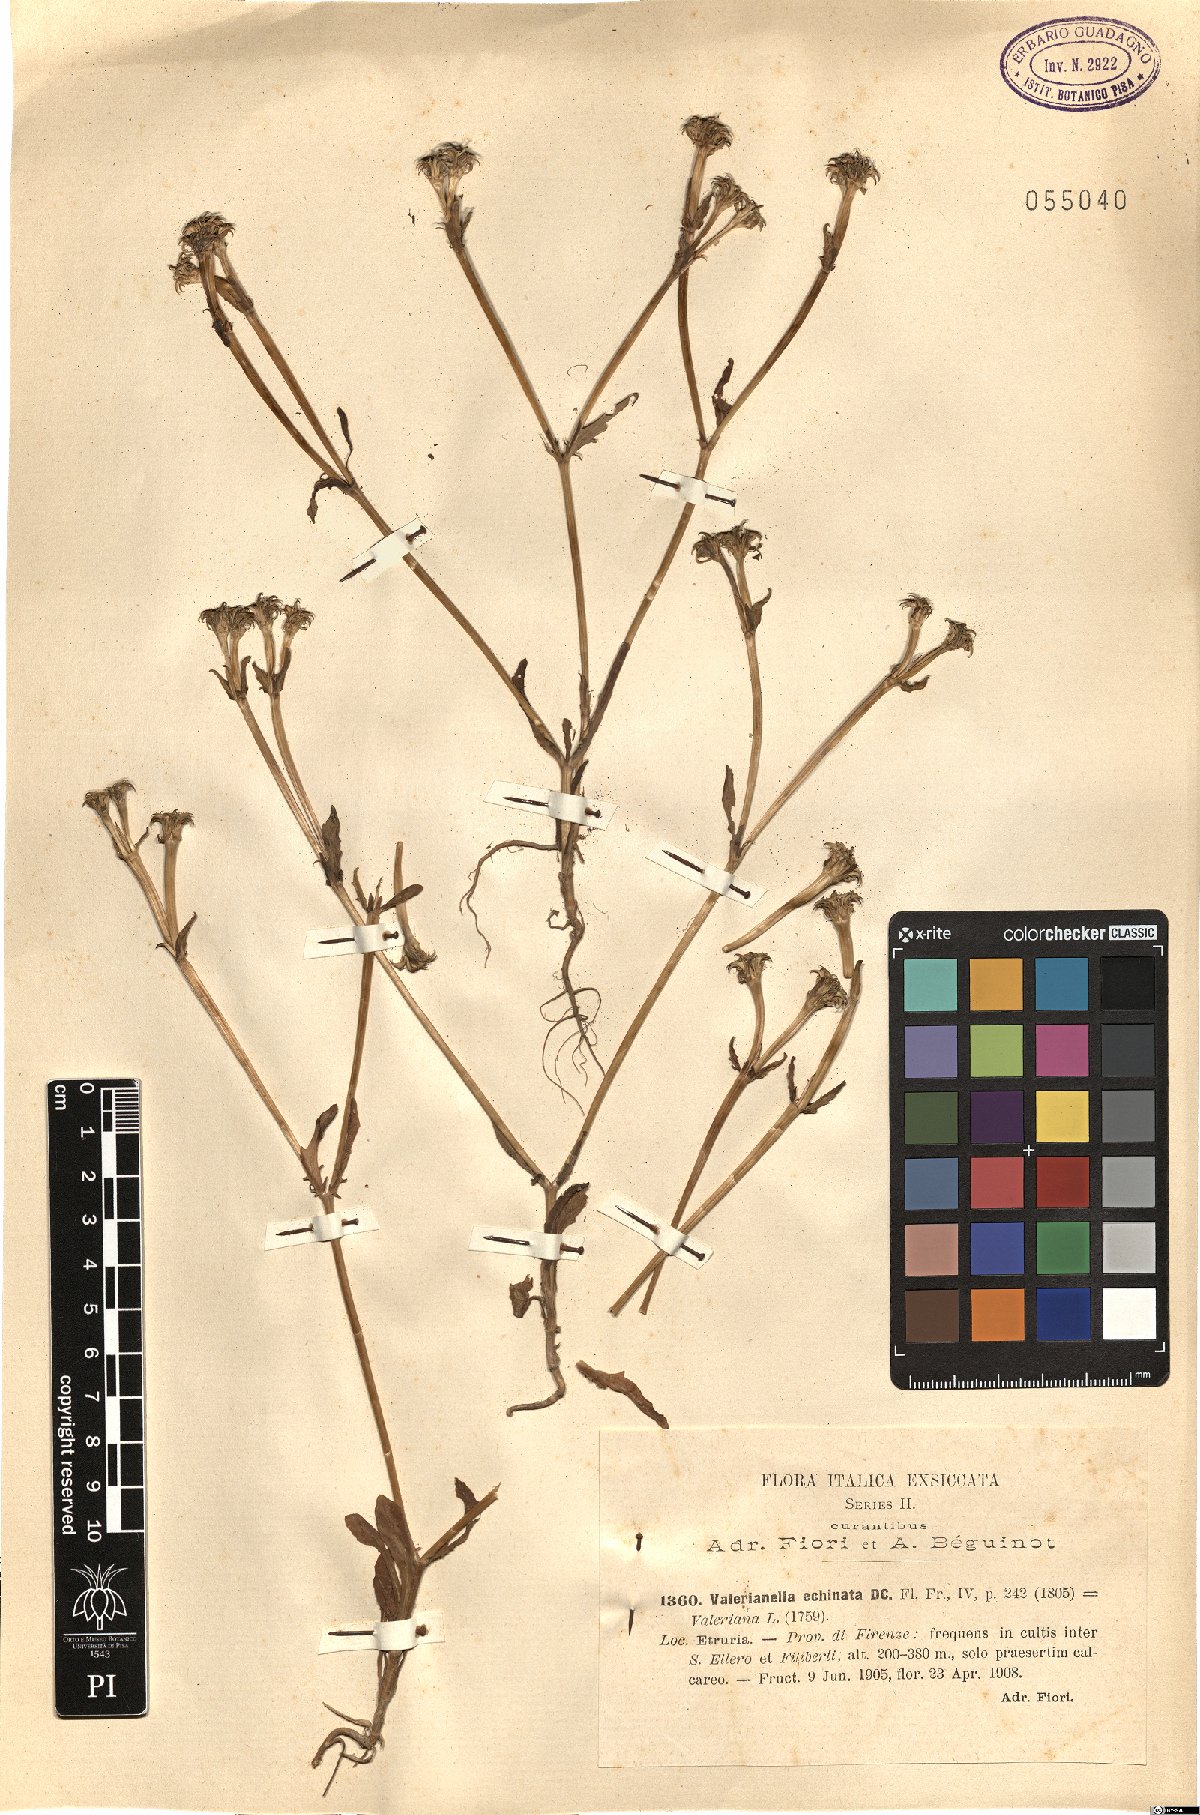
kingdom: Plantae
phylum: Tracheophyta
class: Magnoliopsida
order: Dipsacales
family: Caprifoliaceae
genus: Valerianella
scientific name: Valerianella echinata
